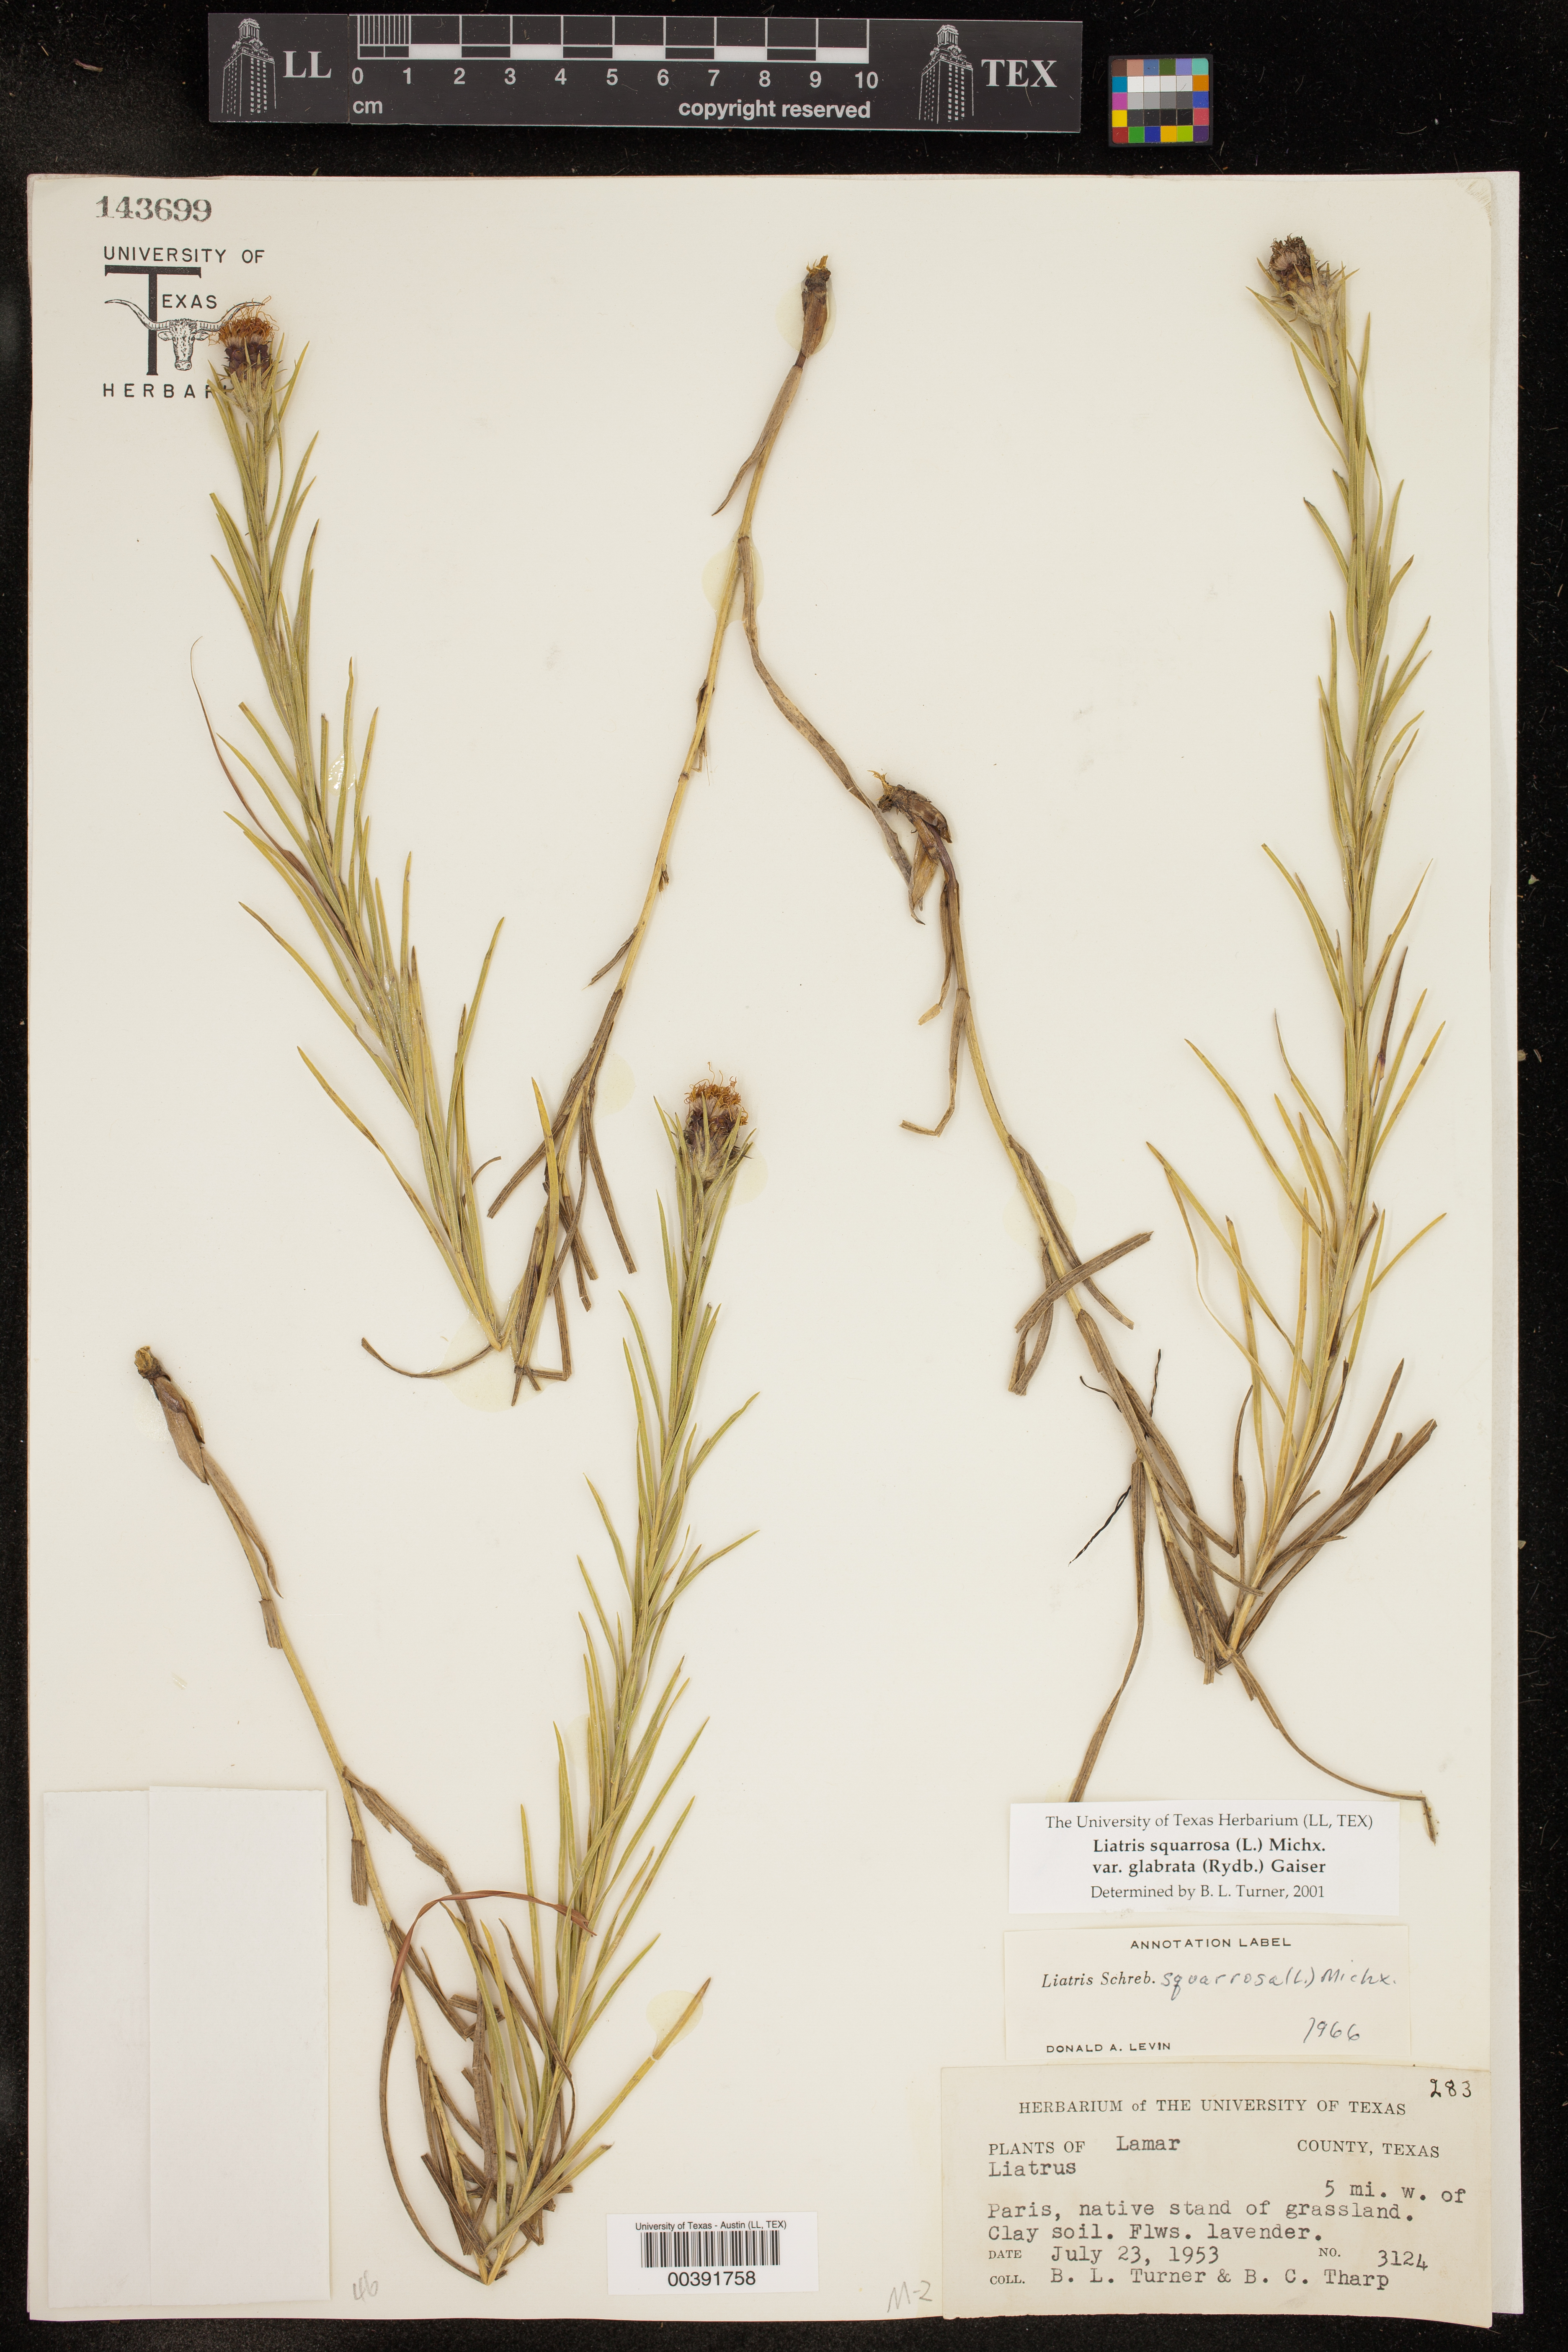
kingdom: Plantae
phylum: Tracheophyta
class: Magnoliopsida
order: Asterales
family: Asteraceae
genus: Liatris
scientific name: Liatris spicata
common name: Florist gayfeather
